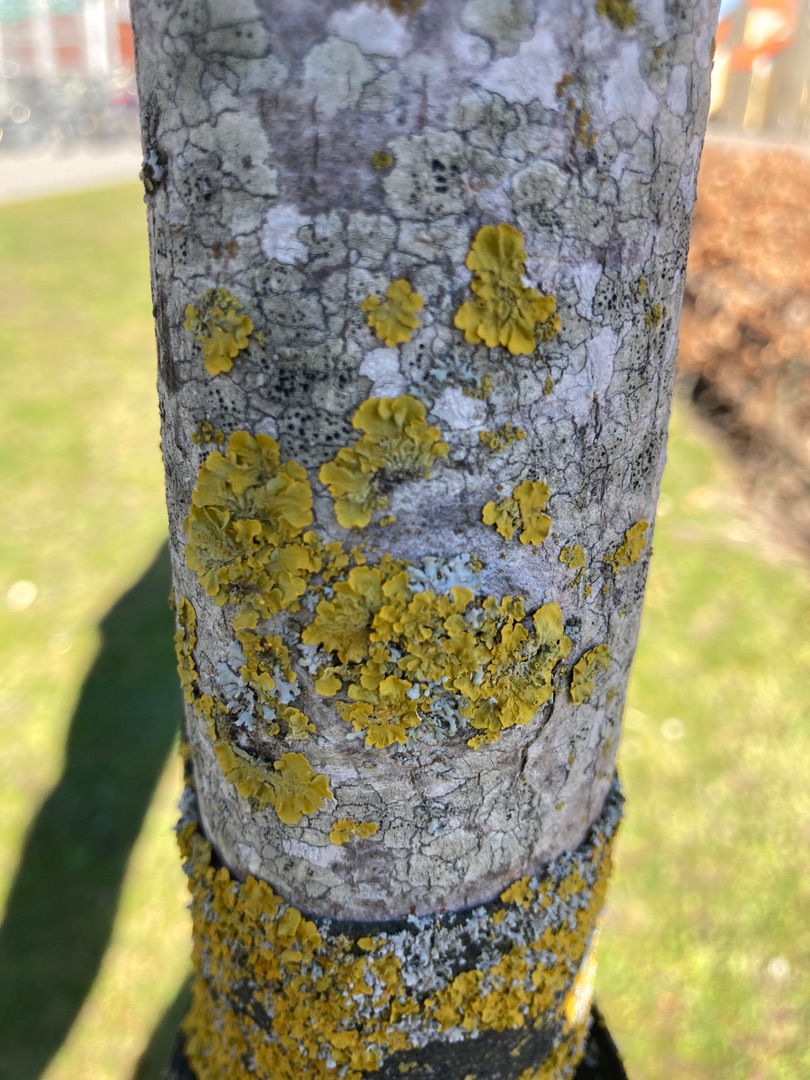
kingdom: Fungi
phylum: Ascomycota
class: Lecanoromycetes
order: Teloschistales
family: Teloschistaceae
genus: Xanthoria
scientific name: Xanthoria parietina
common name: Almindelig væggelav
